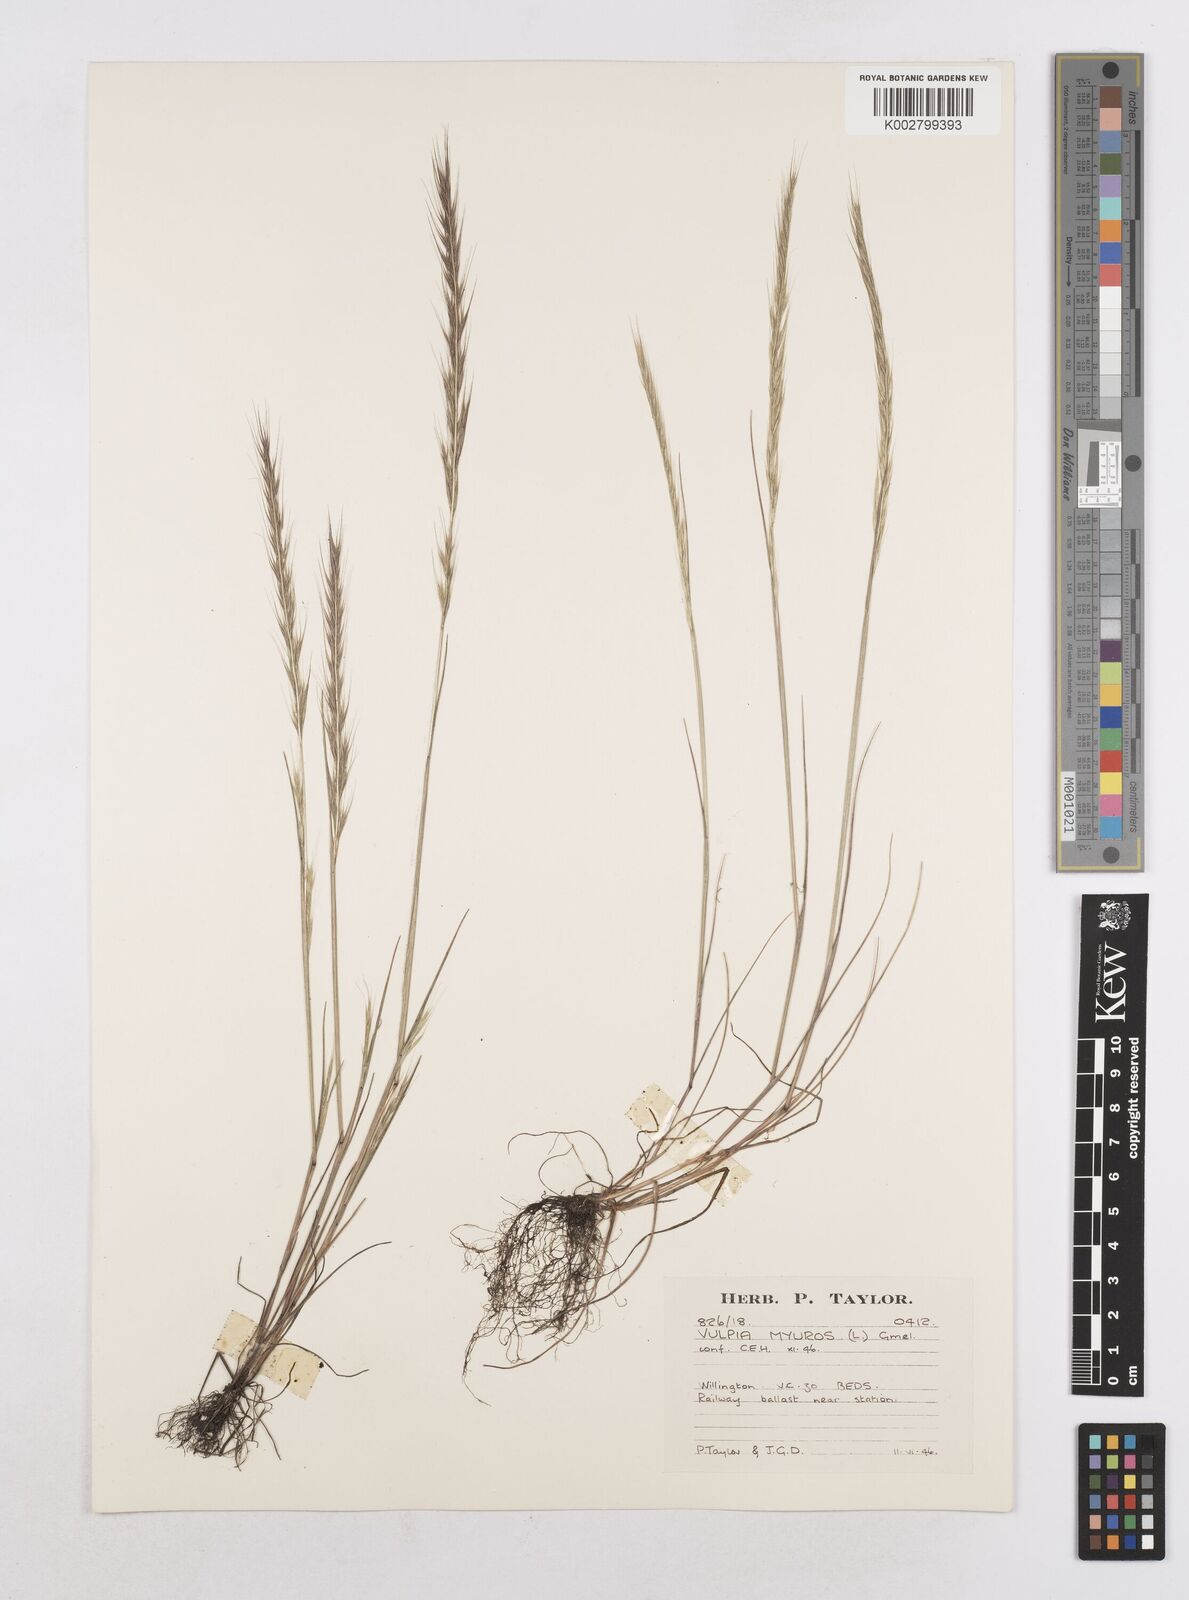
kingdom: Plantae
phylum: Tracheophyta
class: Liliopsida
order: Poales
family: Poaceae
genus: Festuca
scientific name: Festuca myuros
